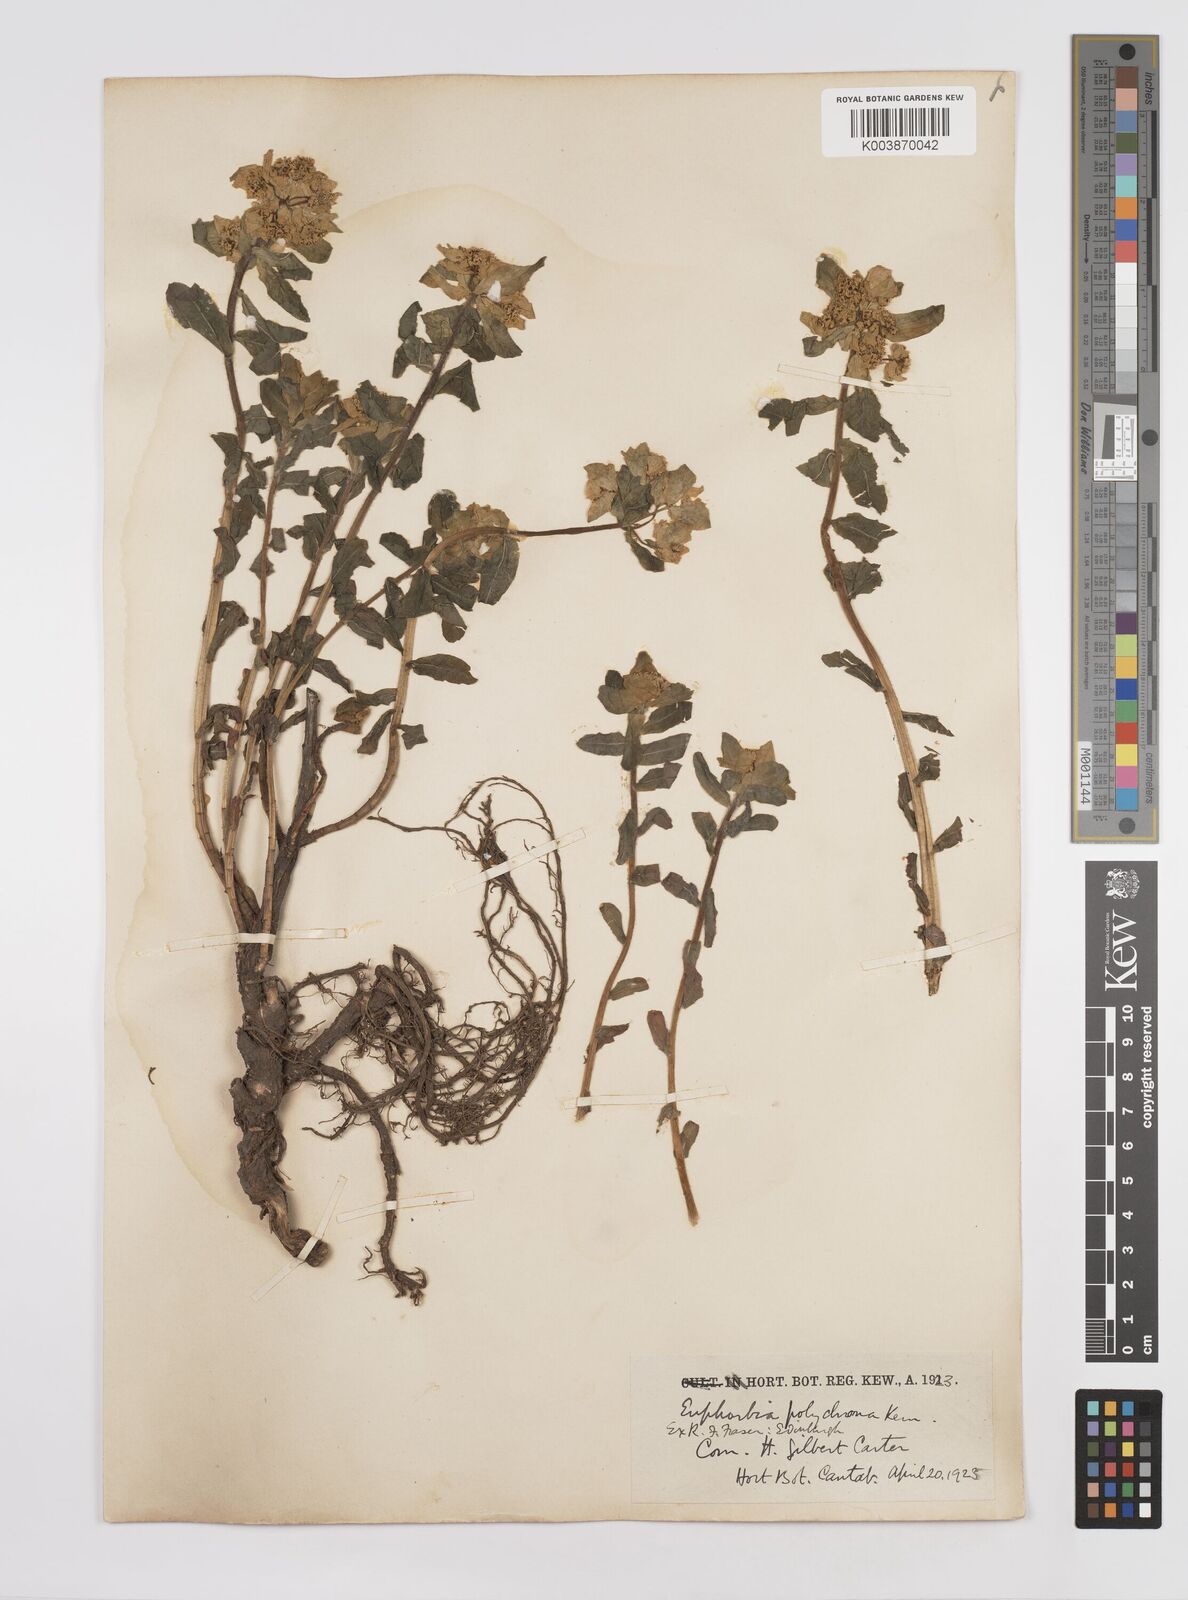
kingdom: Plantae
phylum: Tracheophyta
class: Magnoliopsida
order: Malpighiales
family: Euphorbiaceae
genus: Euphorbia
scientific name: Euphorbia epithymoides
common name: Cushion spurge
